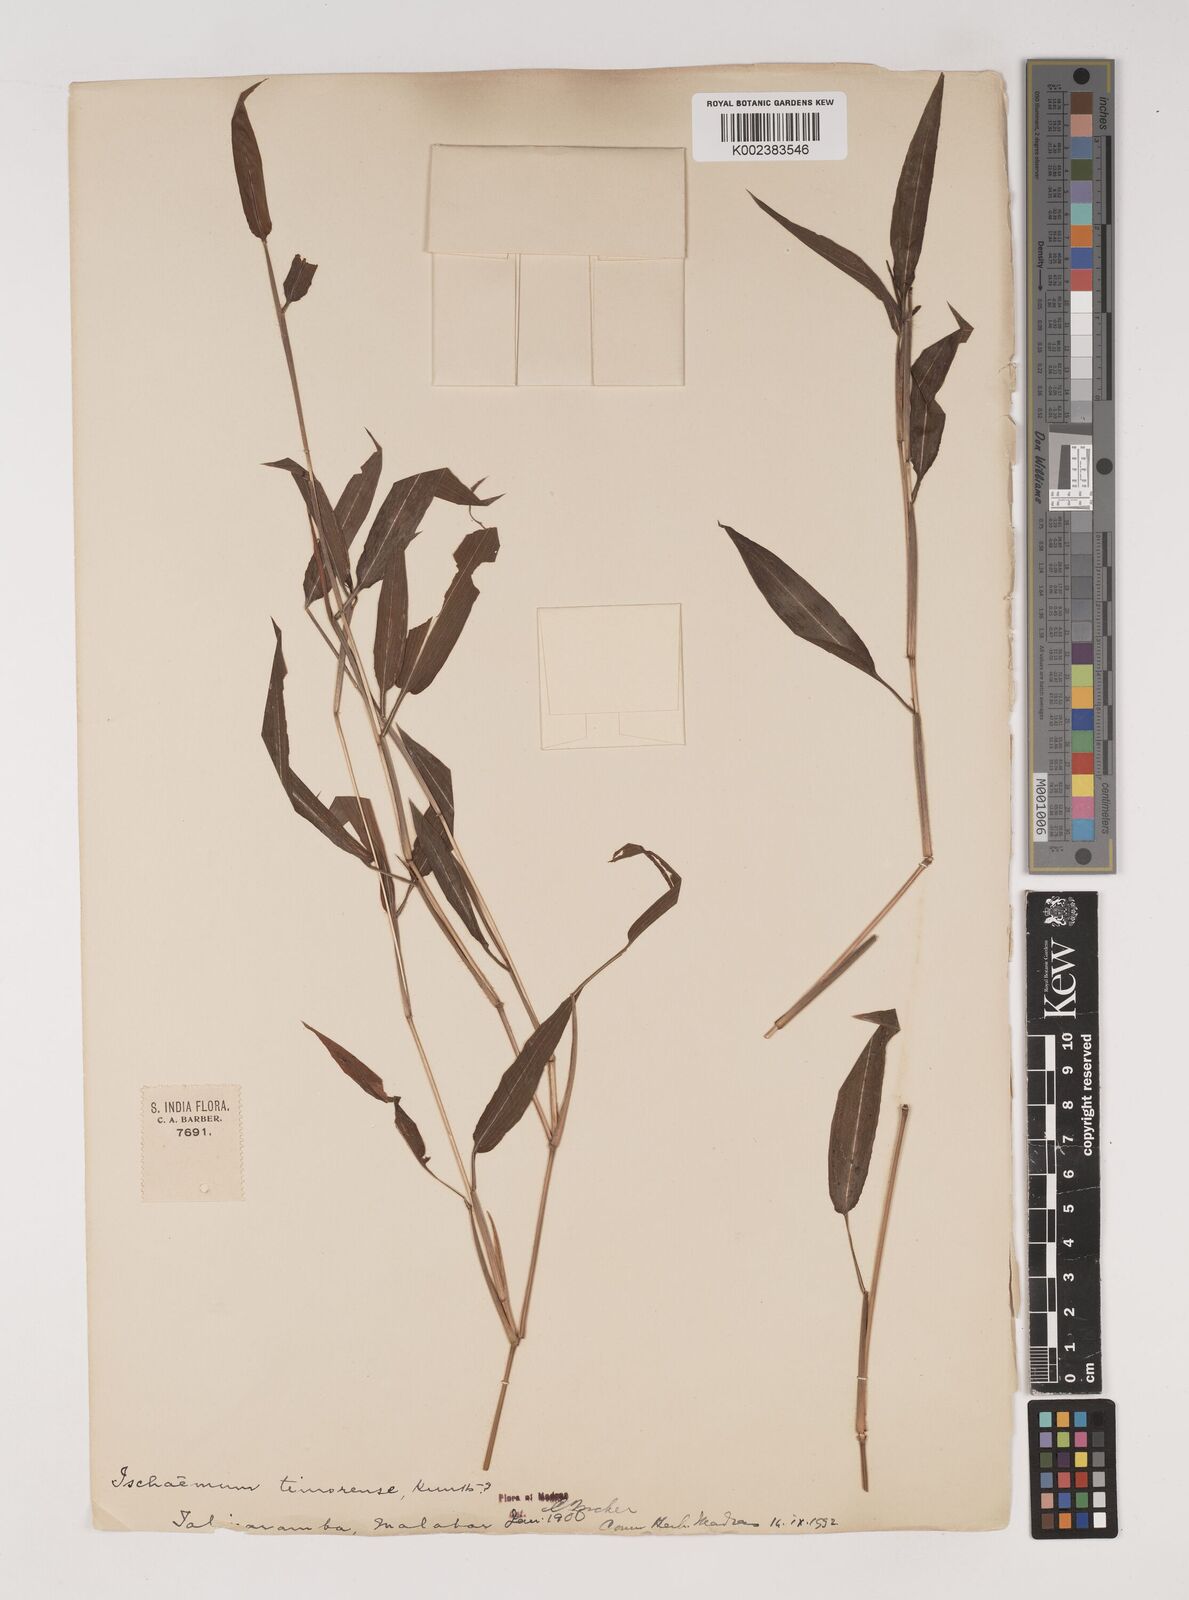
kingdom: Plantae
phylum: Tracheophyta
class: Liliopsida
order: Poales
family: Poaceae
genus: Ischaemum
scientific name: Ischaemum timorense
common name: Stalkleaf murainagrass
